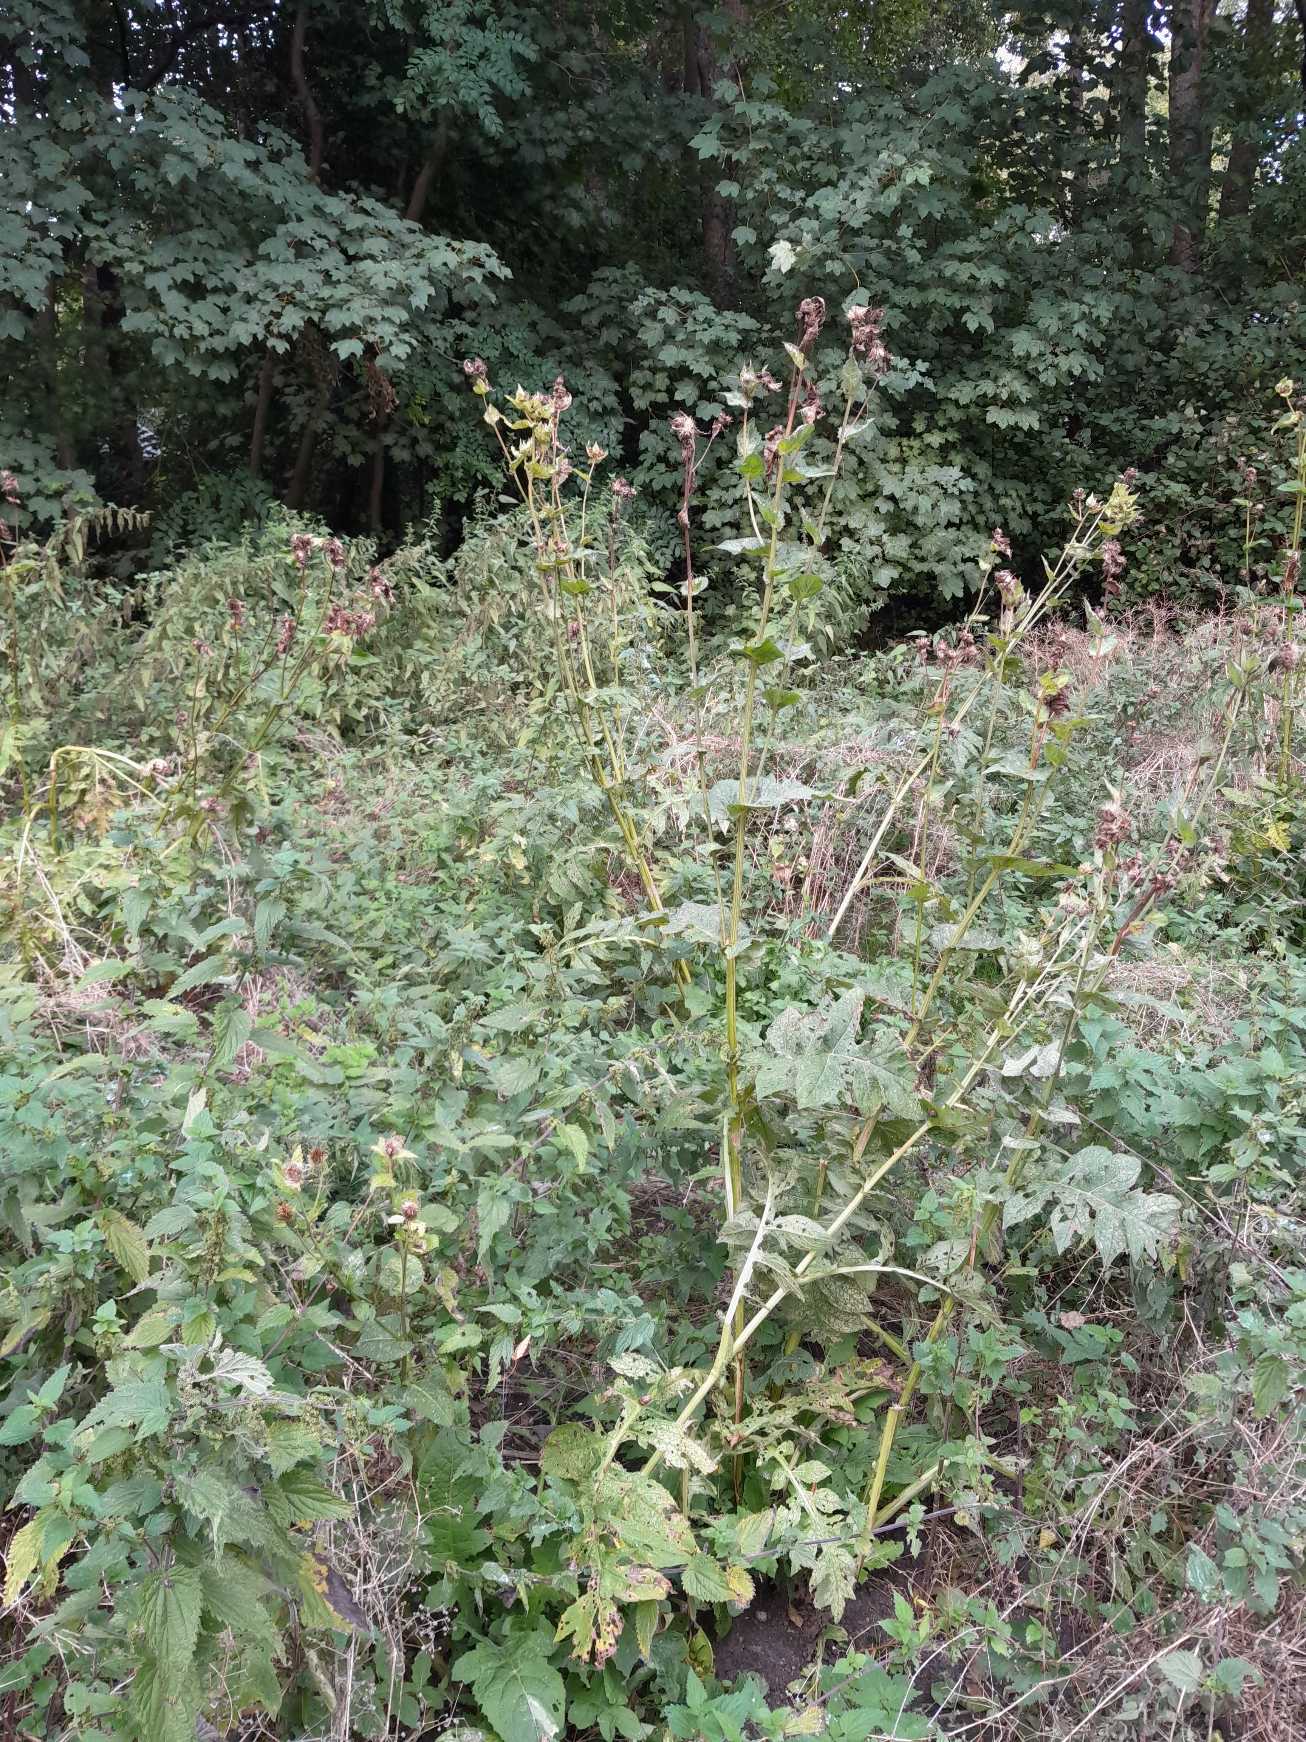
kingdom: Plantae
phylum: Tracheophyta
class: Magnoliopsida
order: Asterales
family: Asteraceae
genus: Cirsium
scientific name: Cirsium oleraceum
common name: Kål-tidsel
